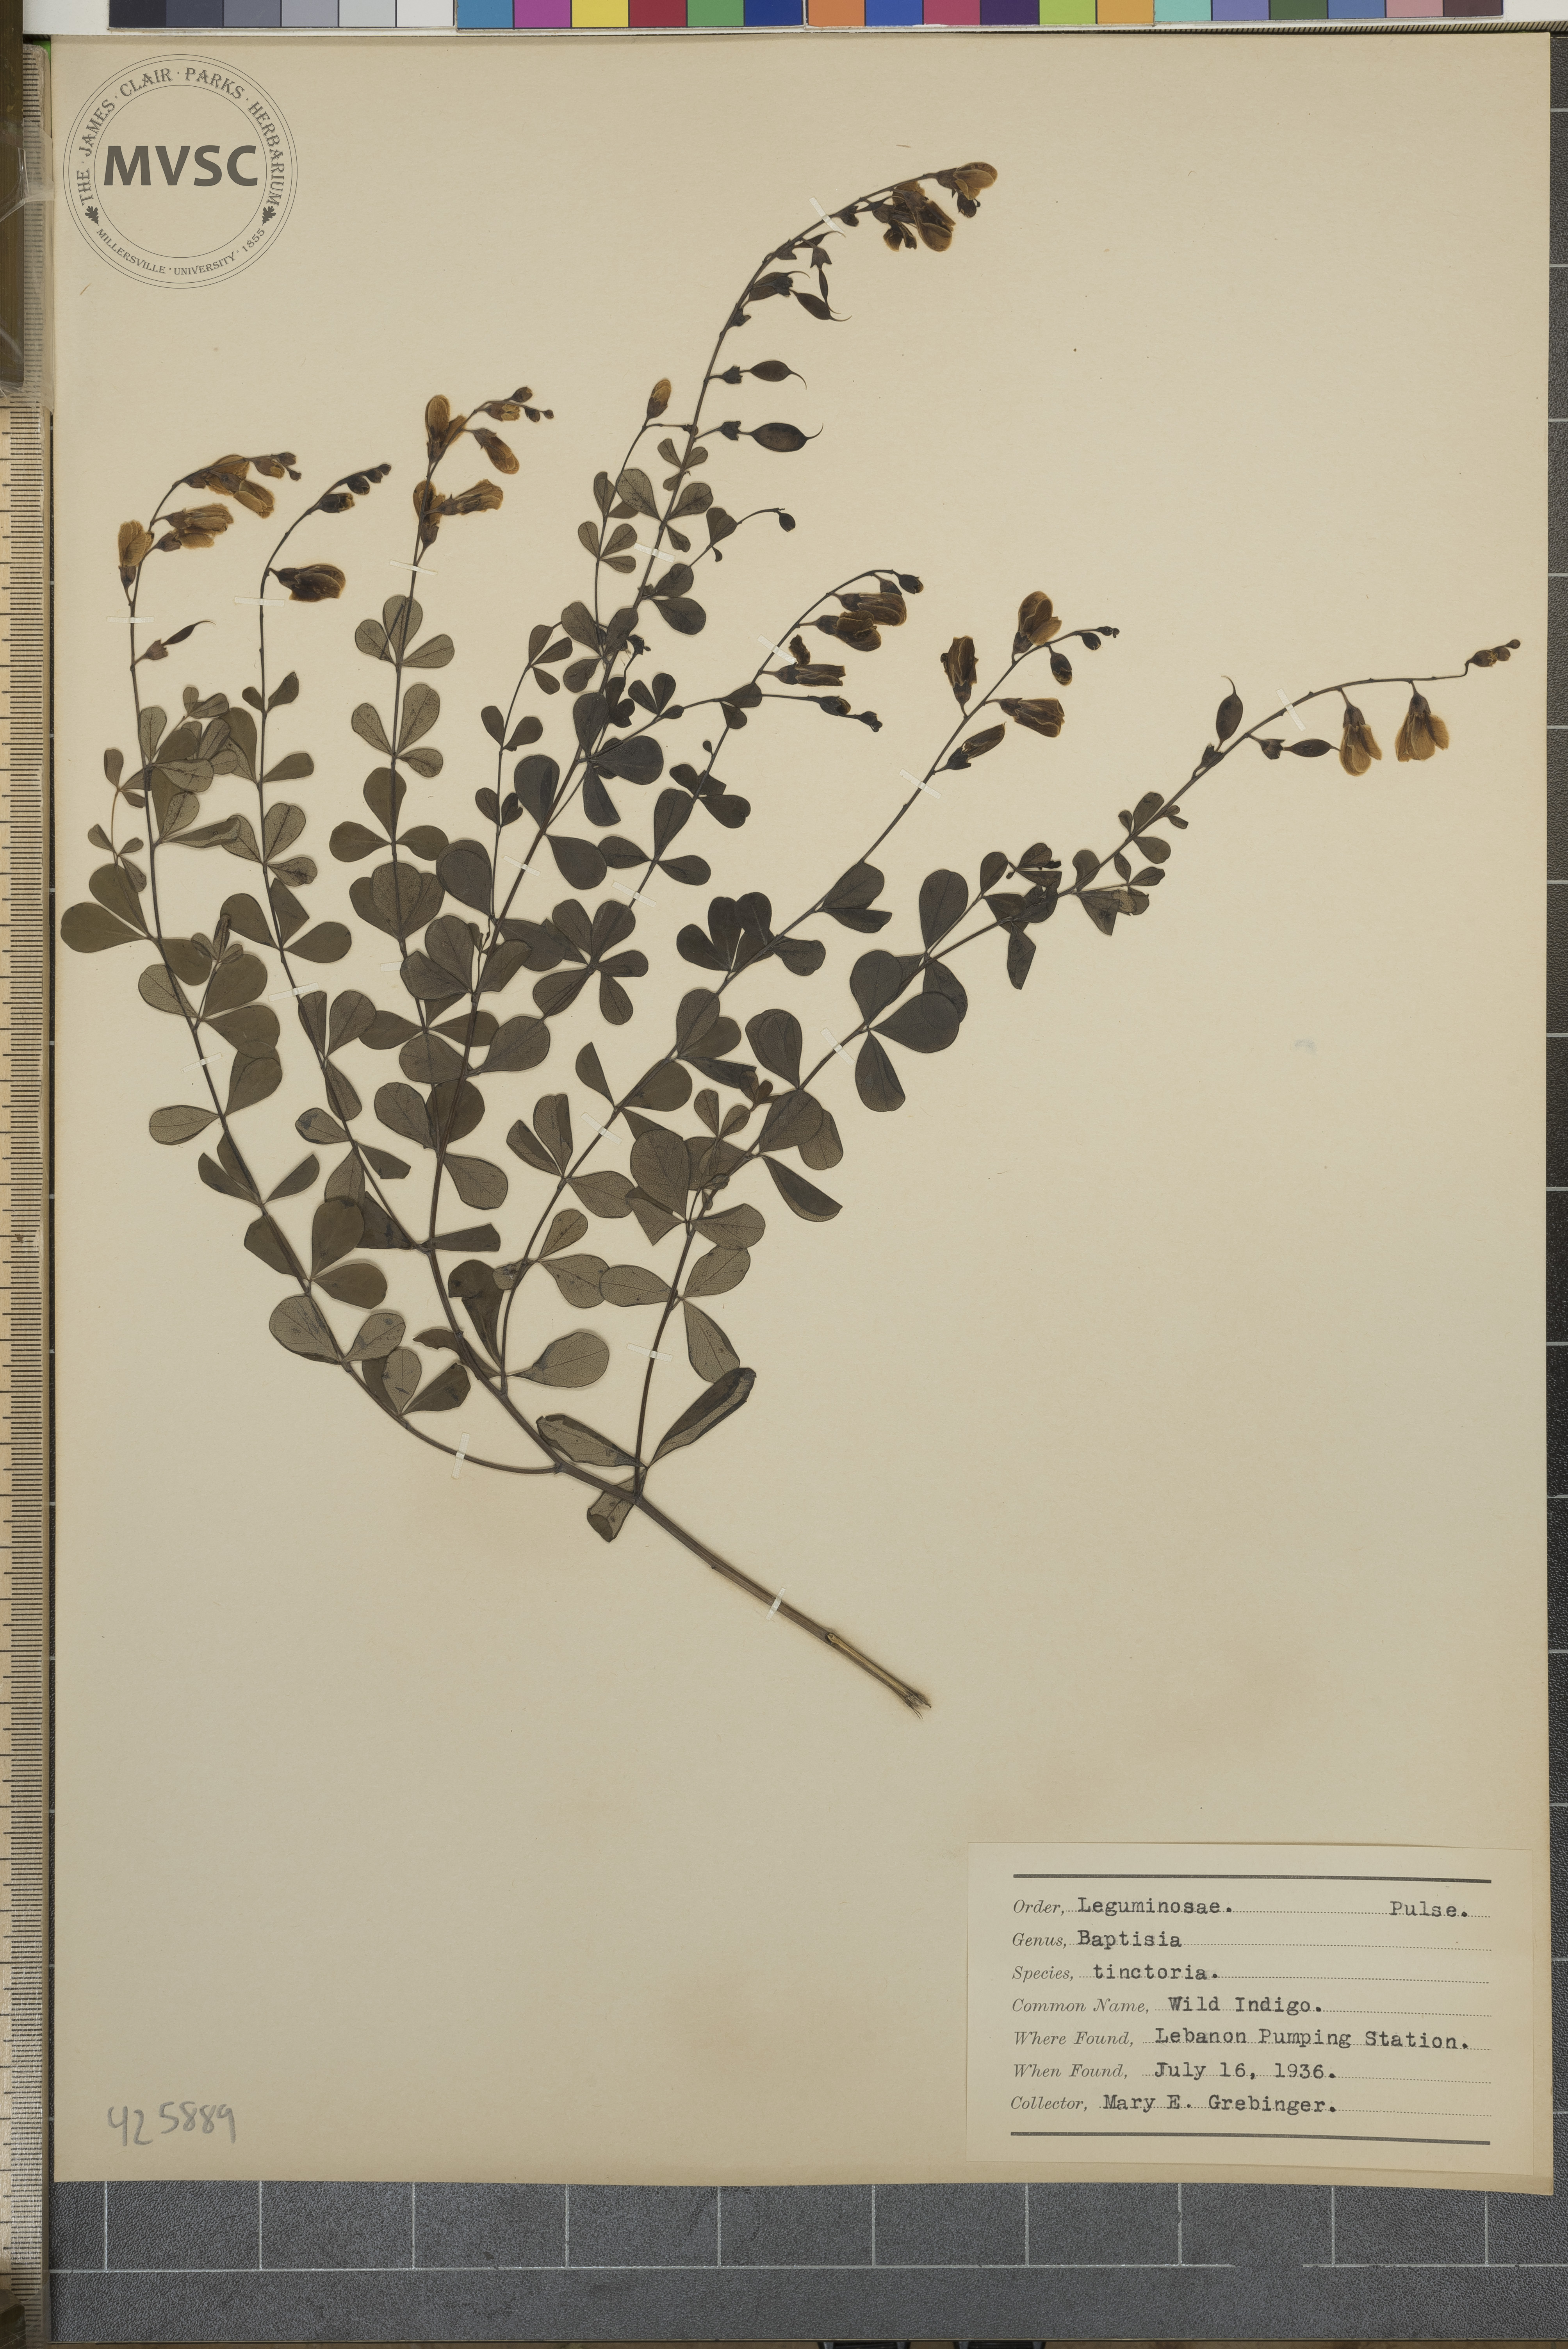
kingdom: Plantae
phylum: Tracheophyta
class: Magnoliopsida
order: Fabales
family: Fabaceae
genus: Baptisia
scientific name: Baptisia tinctoria
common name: Wild indigo
